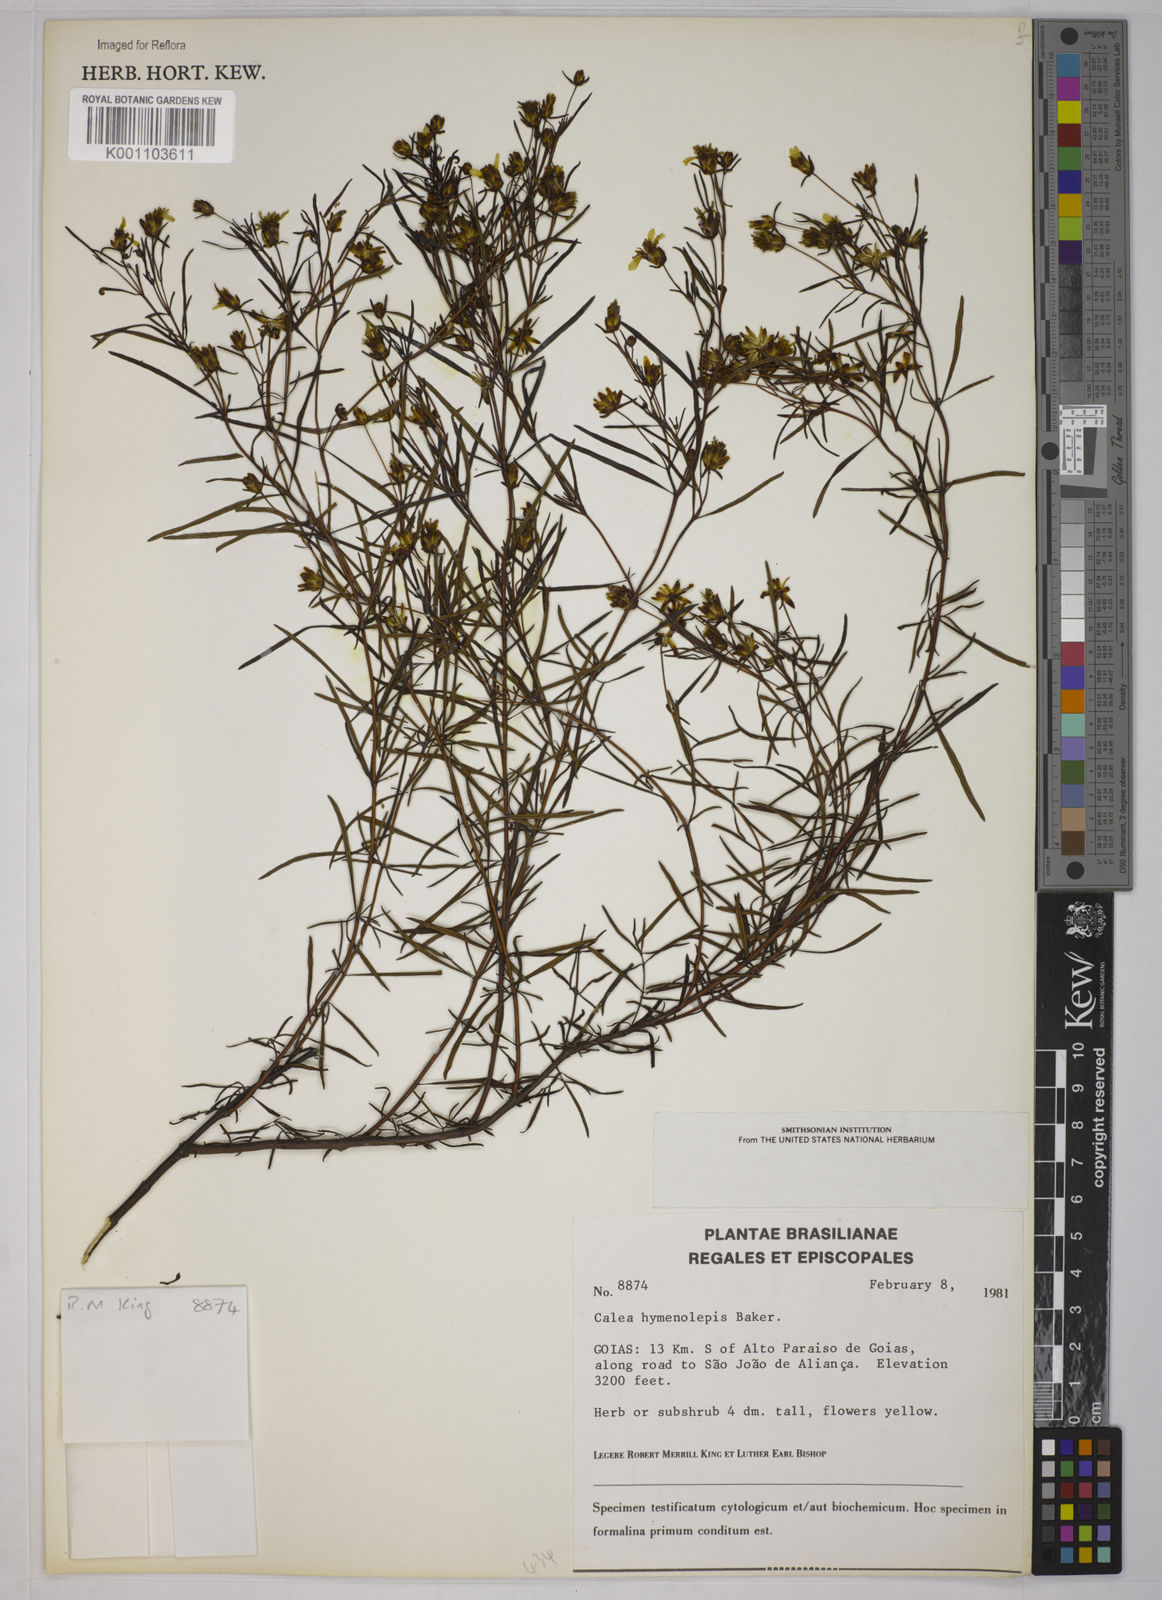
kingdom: Plantae
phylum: Tracheophyta
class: Magnoliopsida
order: Asterales
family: Asteraceae
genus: Calea
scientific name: Calea hymenolepis
